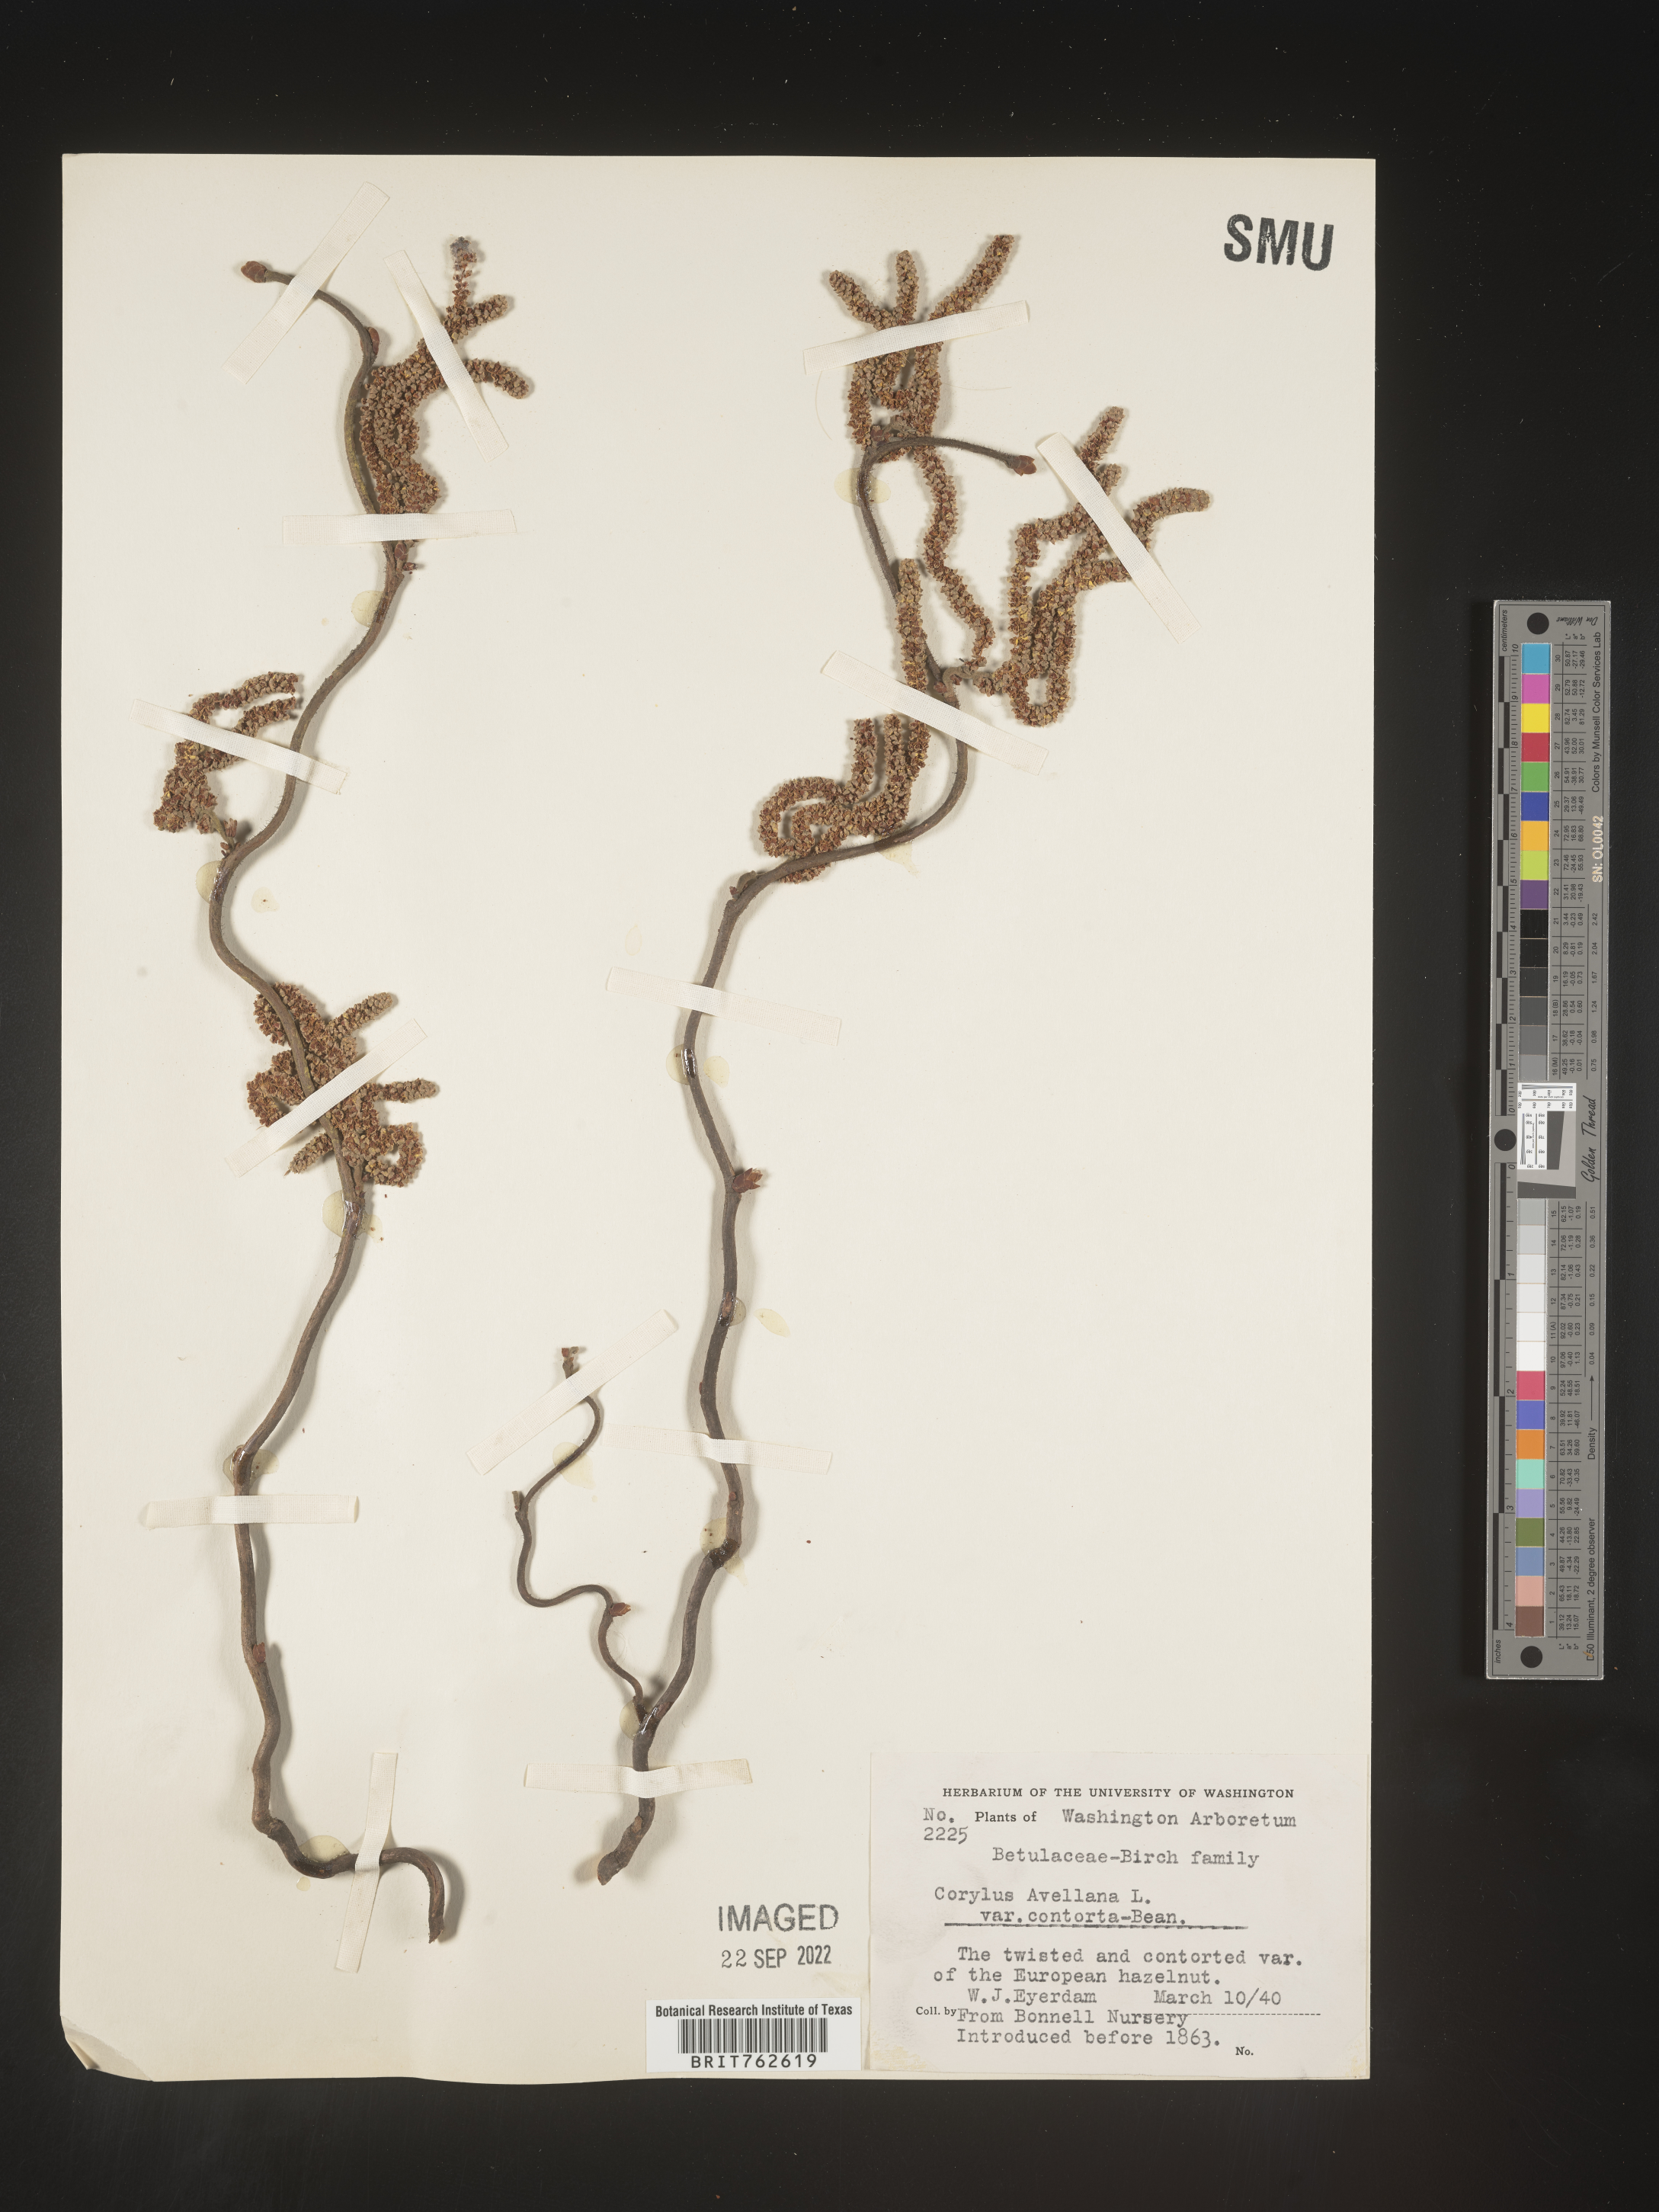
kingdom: Plantae
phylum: Tracheophyta
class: Magnoliopsida
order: Fagales
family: Betulaceae
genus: Corylus
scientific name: Corylus
